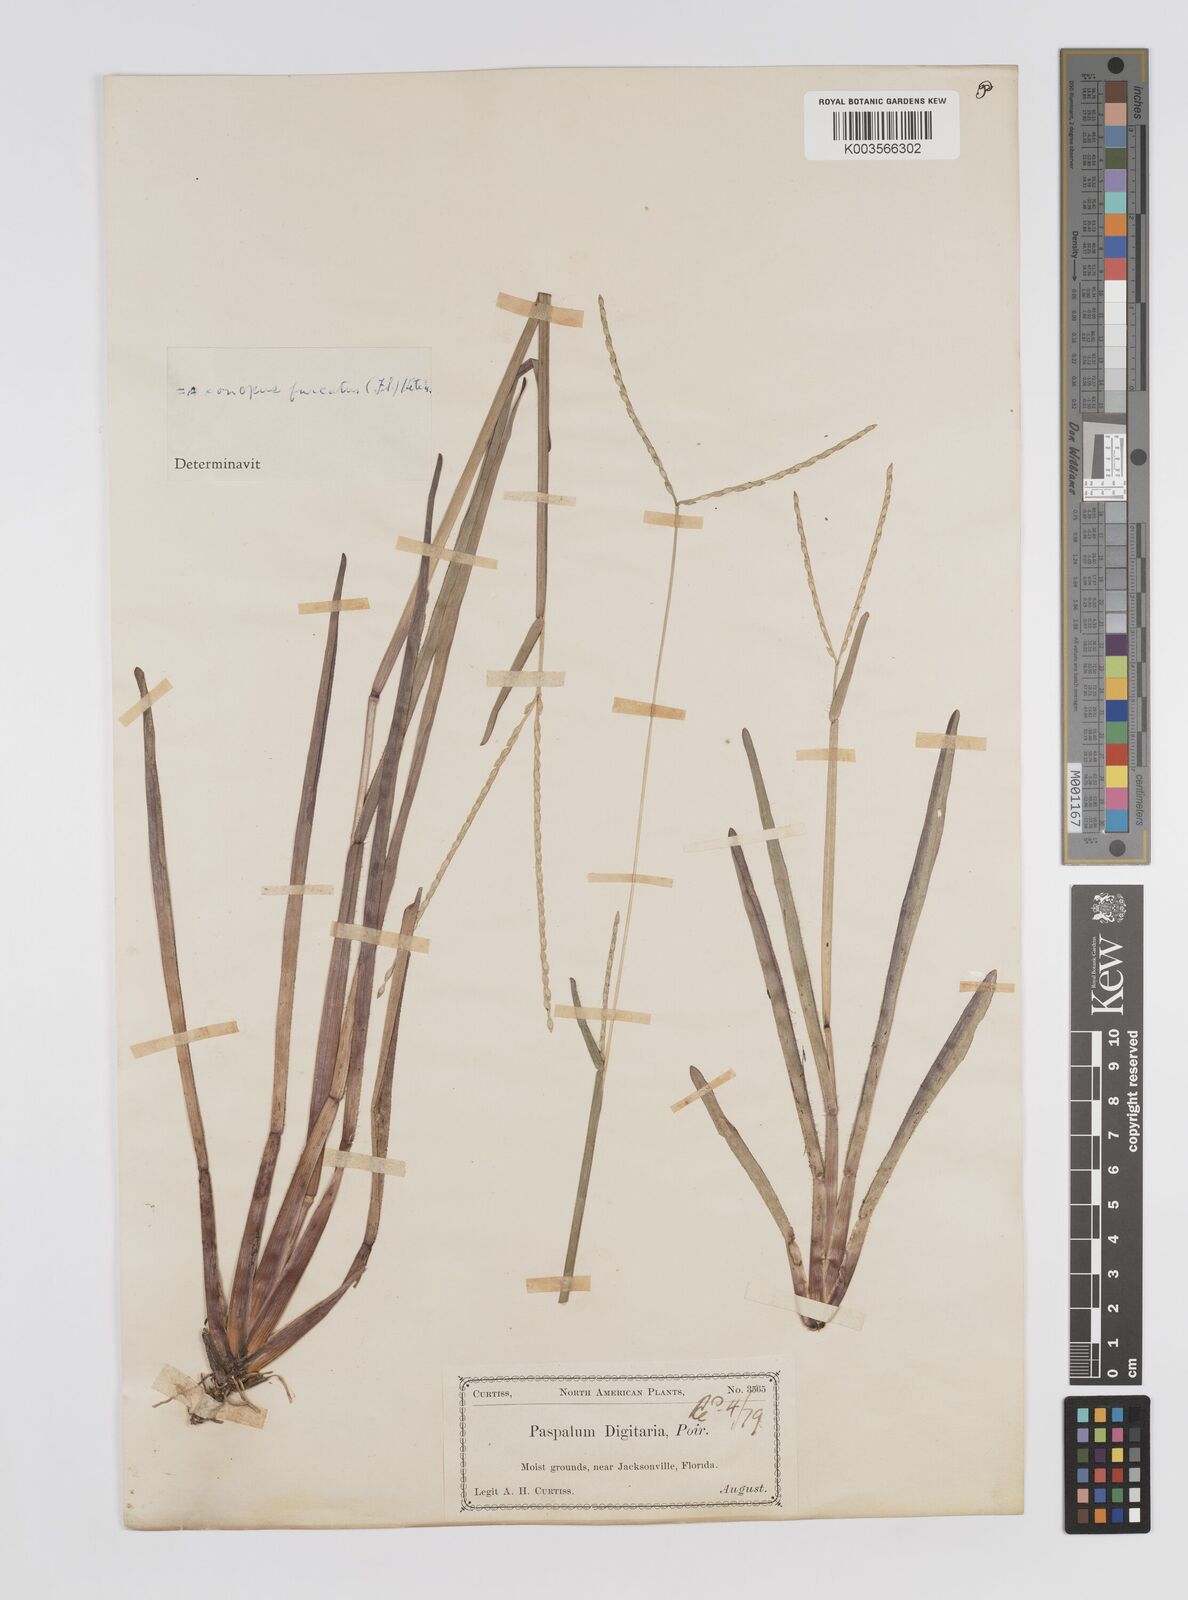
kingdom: Plantae
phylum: Tracheophyta
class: Liliopsida
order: Poales
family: Poaceae
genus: Axonopus
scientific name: Axonopus furcatus
